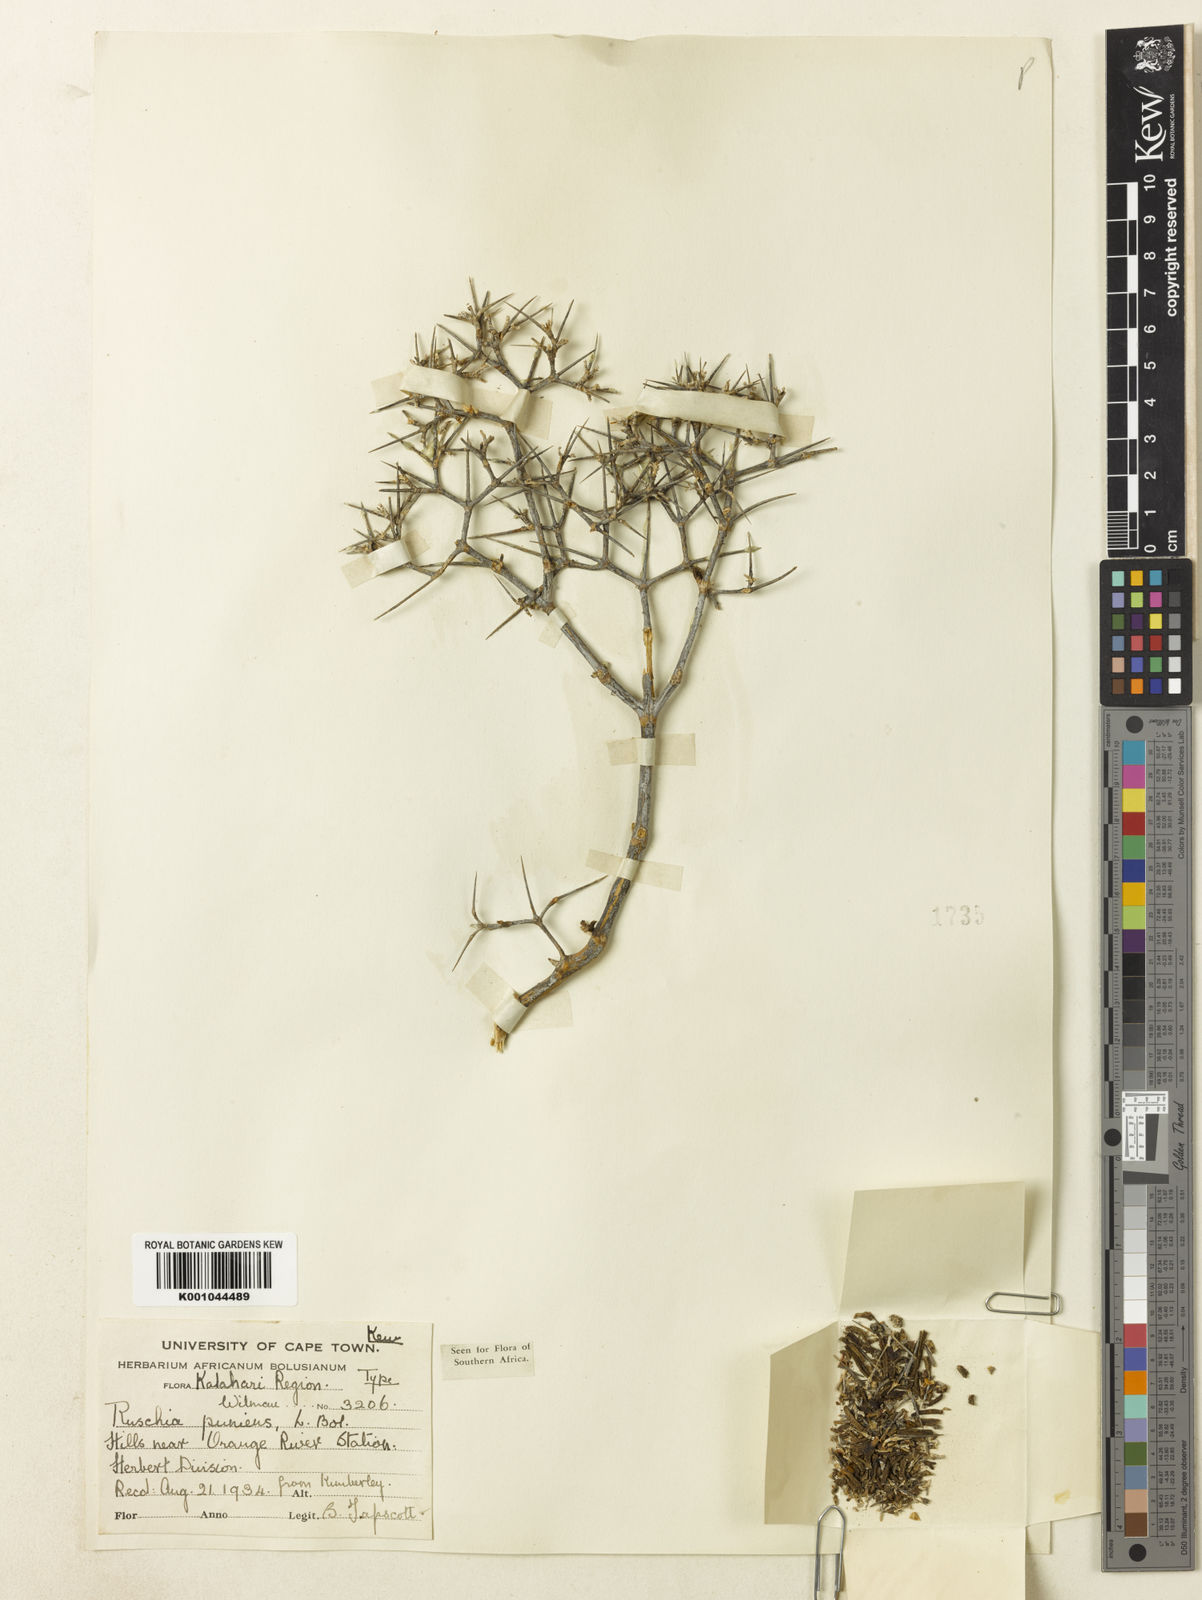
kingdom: Plantae
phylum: Tracheophyta
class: Magnoliopsida
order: Caryophyllales
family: Aizoaceae
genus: Ruschia
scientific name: Ruschia
